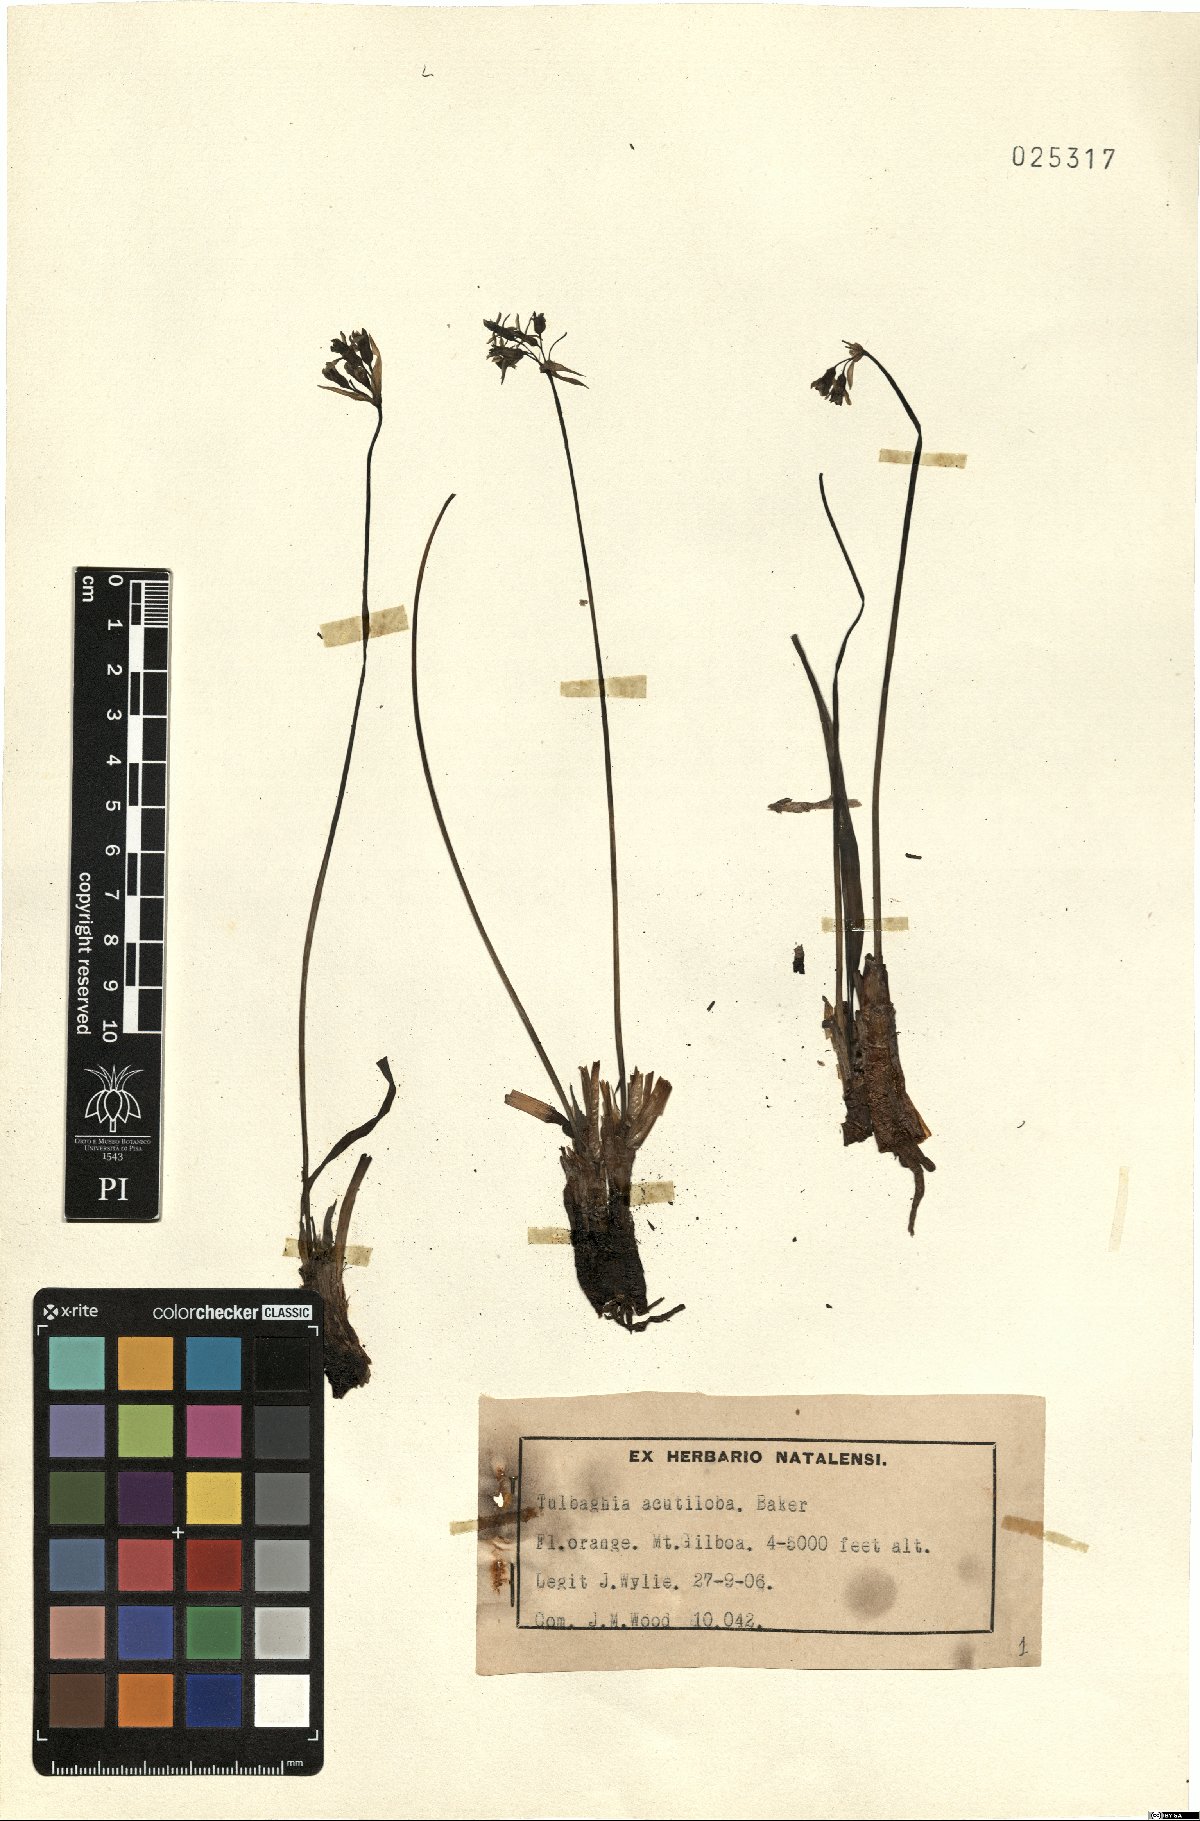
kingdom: Plantae
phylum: Tracheophyta
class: Liliopsida
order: Asparagales
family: Amaryllidaceae
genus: Tulbaghia
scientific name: Tulbaghia acutiloba
